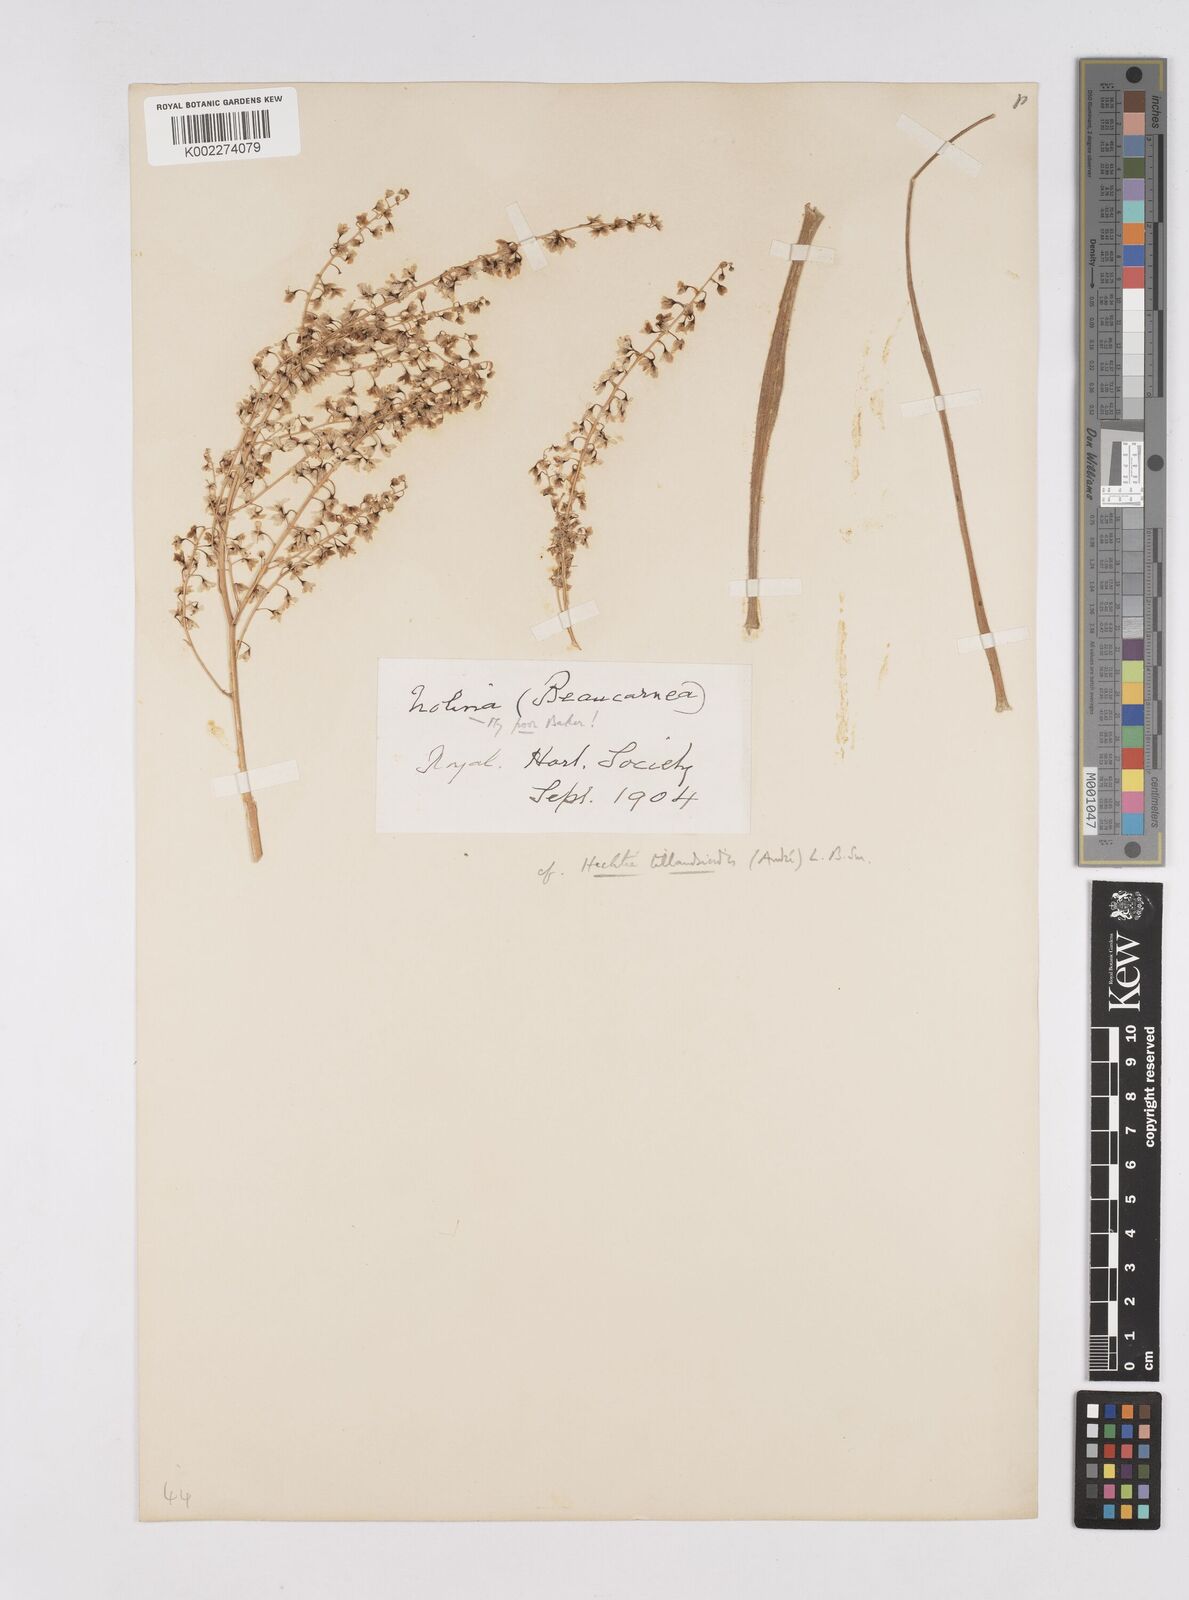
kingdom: Plantae
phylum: Tracheophyta
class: Liliopsida
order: Poales
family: Bromeliaceae
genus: Hechtia
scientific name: Hechtia tillandsioides
